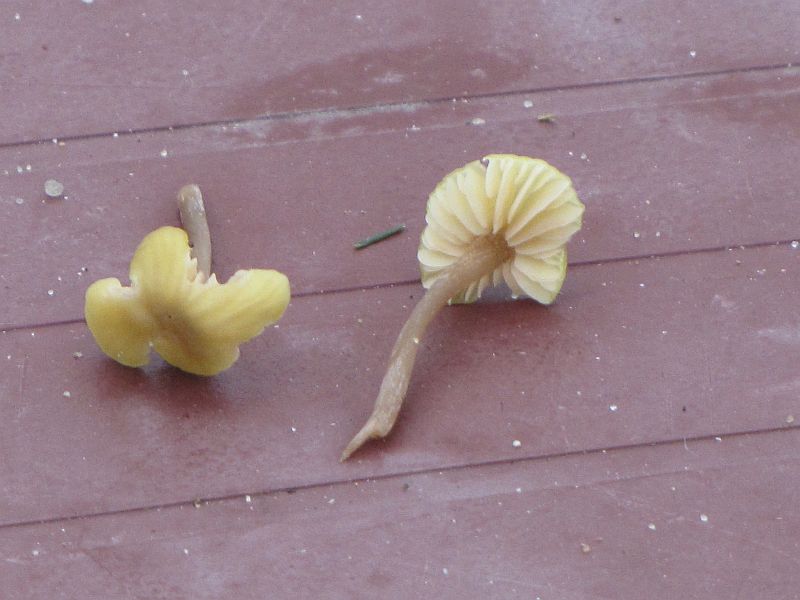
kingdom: Fungi
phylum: Basidiomycota
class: Agaricomycetes
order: Agaricales
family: Entolomataceae
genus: Entoloma
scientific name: Entoloma pleopodium
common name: duftende rødblad
